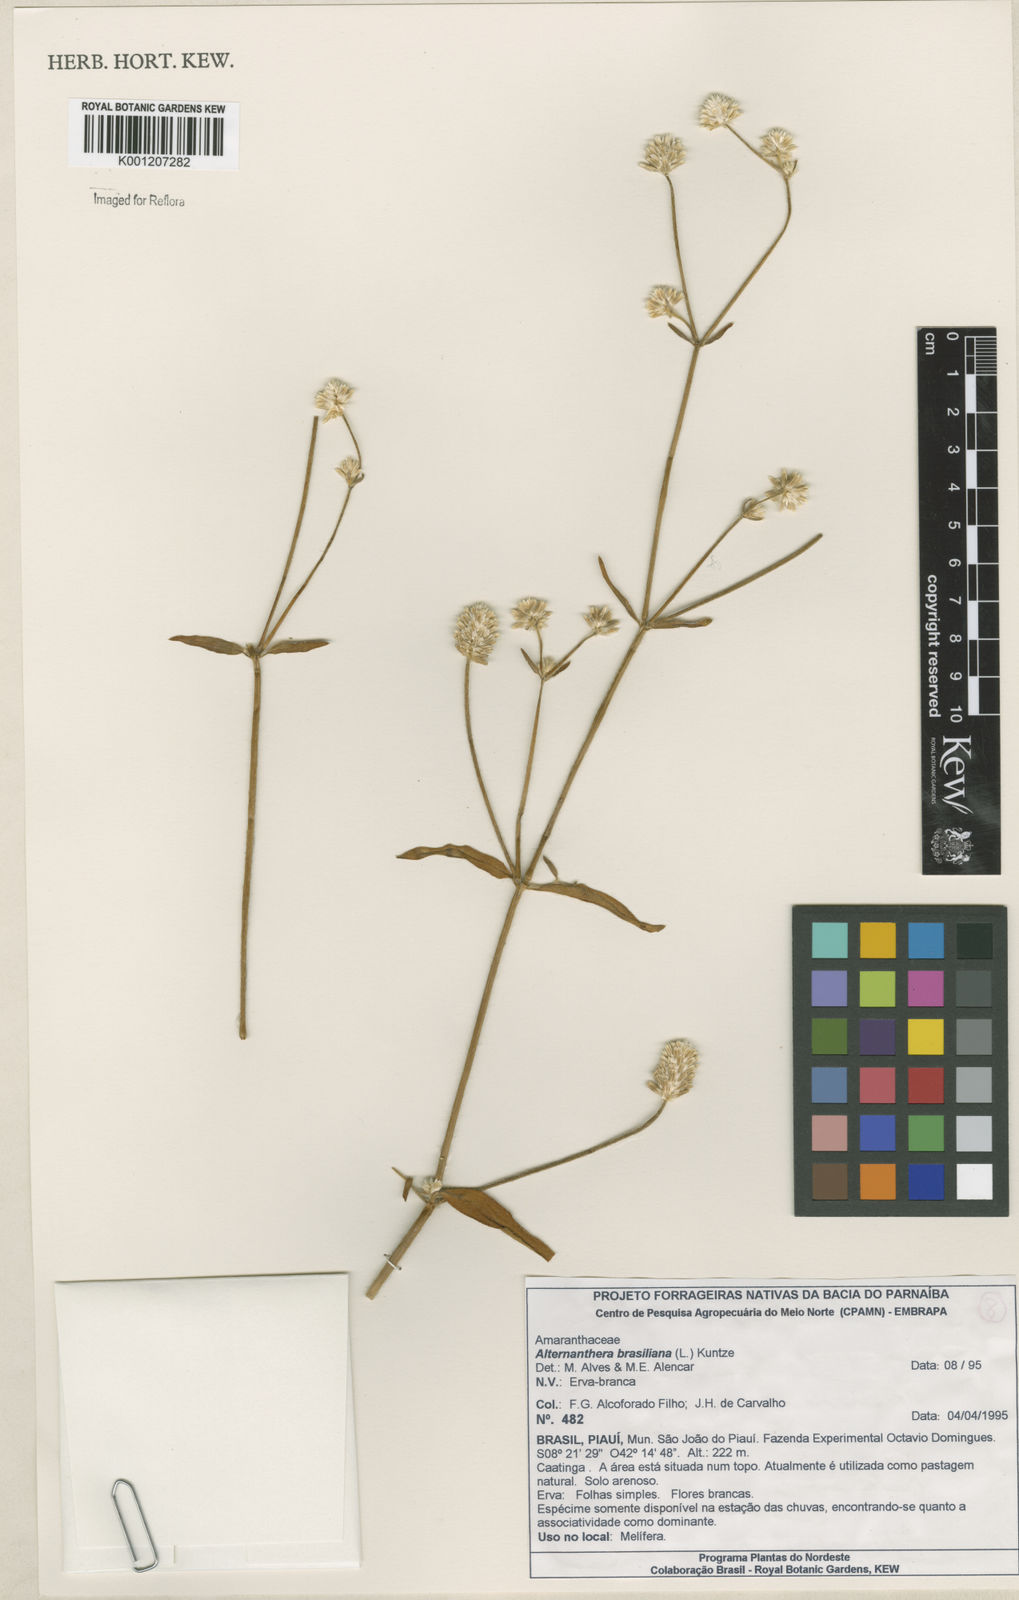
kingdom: Plantae
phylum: Tracheophyta
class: Magnoliopsida
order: Caryophyllales
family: Amaranthaceae
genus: Alternanthera
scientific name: Alternanthera brasiliana
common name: Brazilian joyweed
